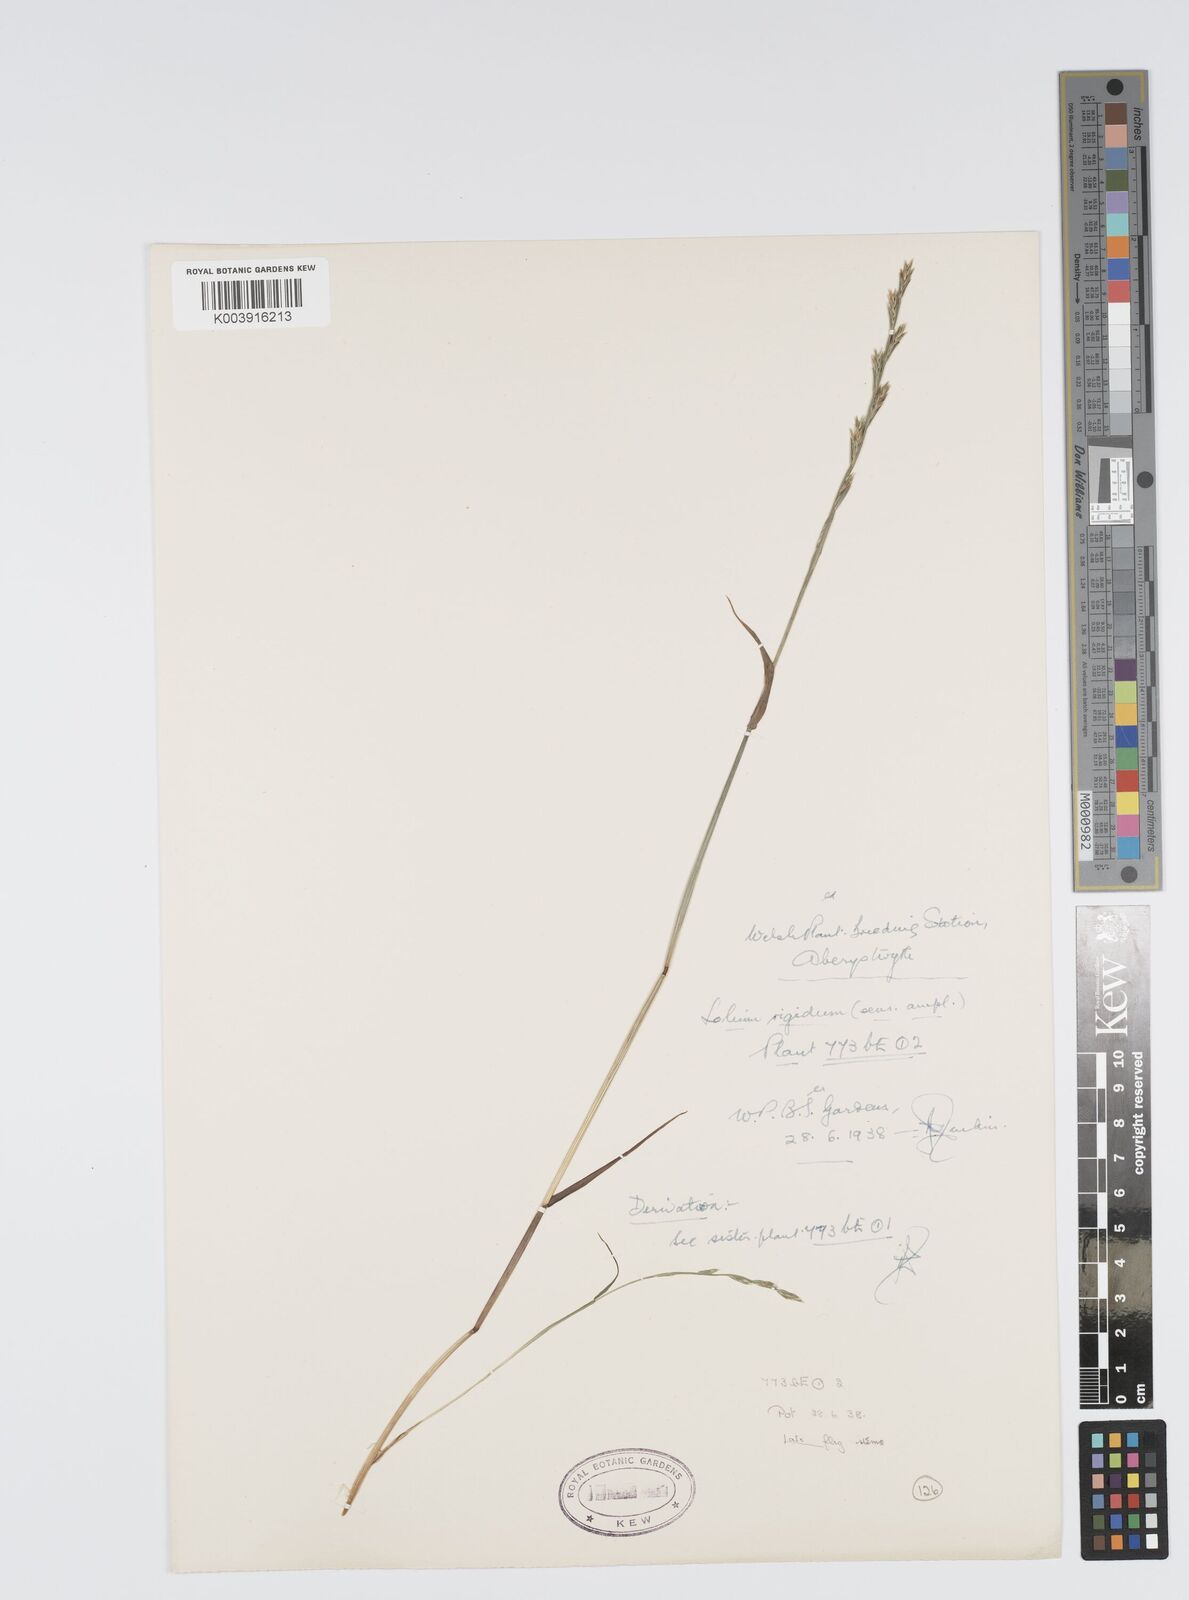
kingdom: Plantae
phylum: Tracheophyta
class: Liliopsida
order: Poales
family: Poaceae
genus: Lolium
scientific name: Lolium rigidum
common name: Wimmera ryegrass
